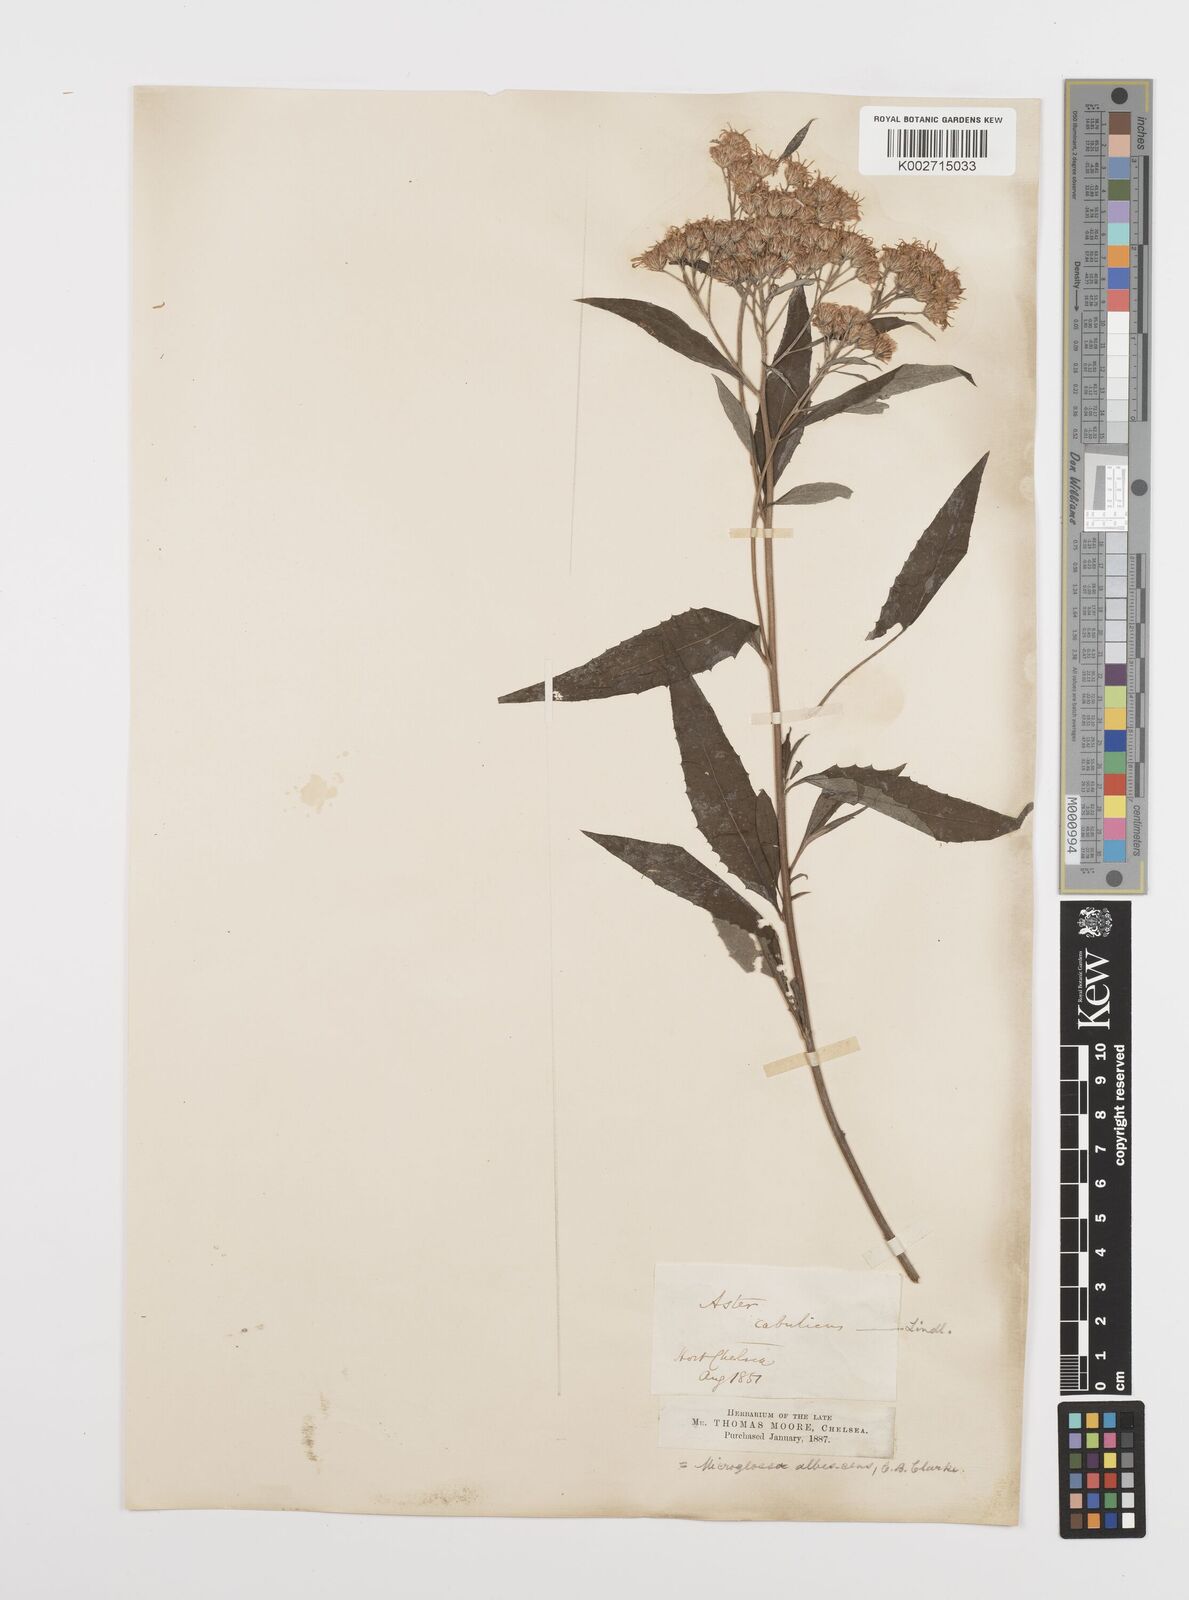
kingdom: Plantae
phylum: Tracheophyta
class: Magnoliopsida
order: Asterales
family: Asteraceae
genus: Sinosidus
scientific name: Sinosidus albescens
